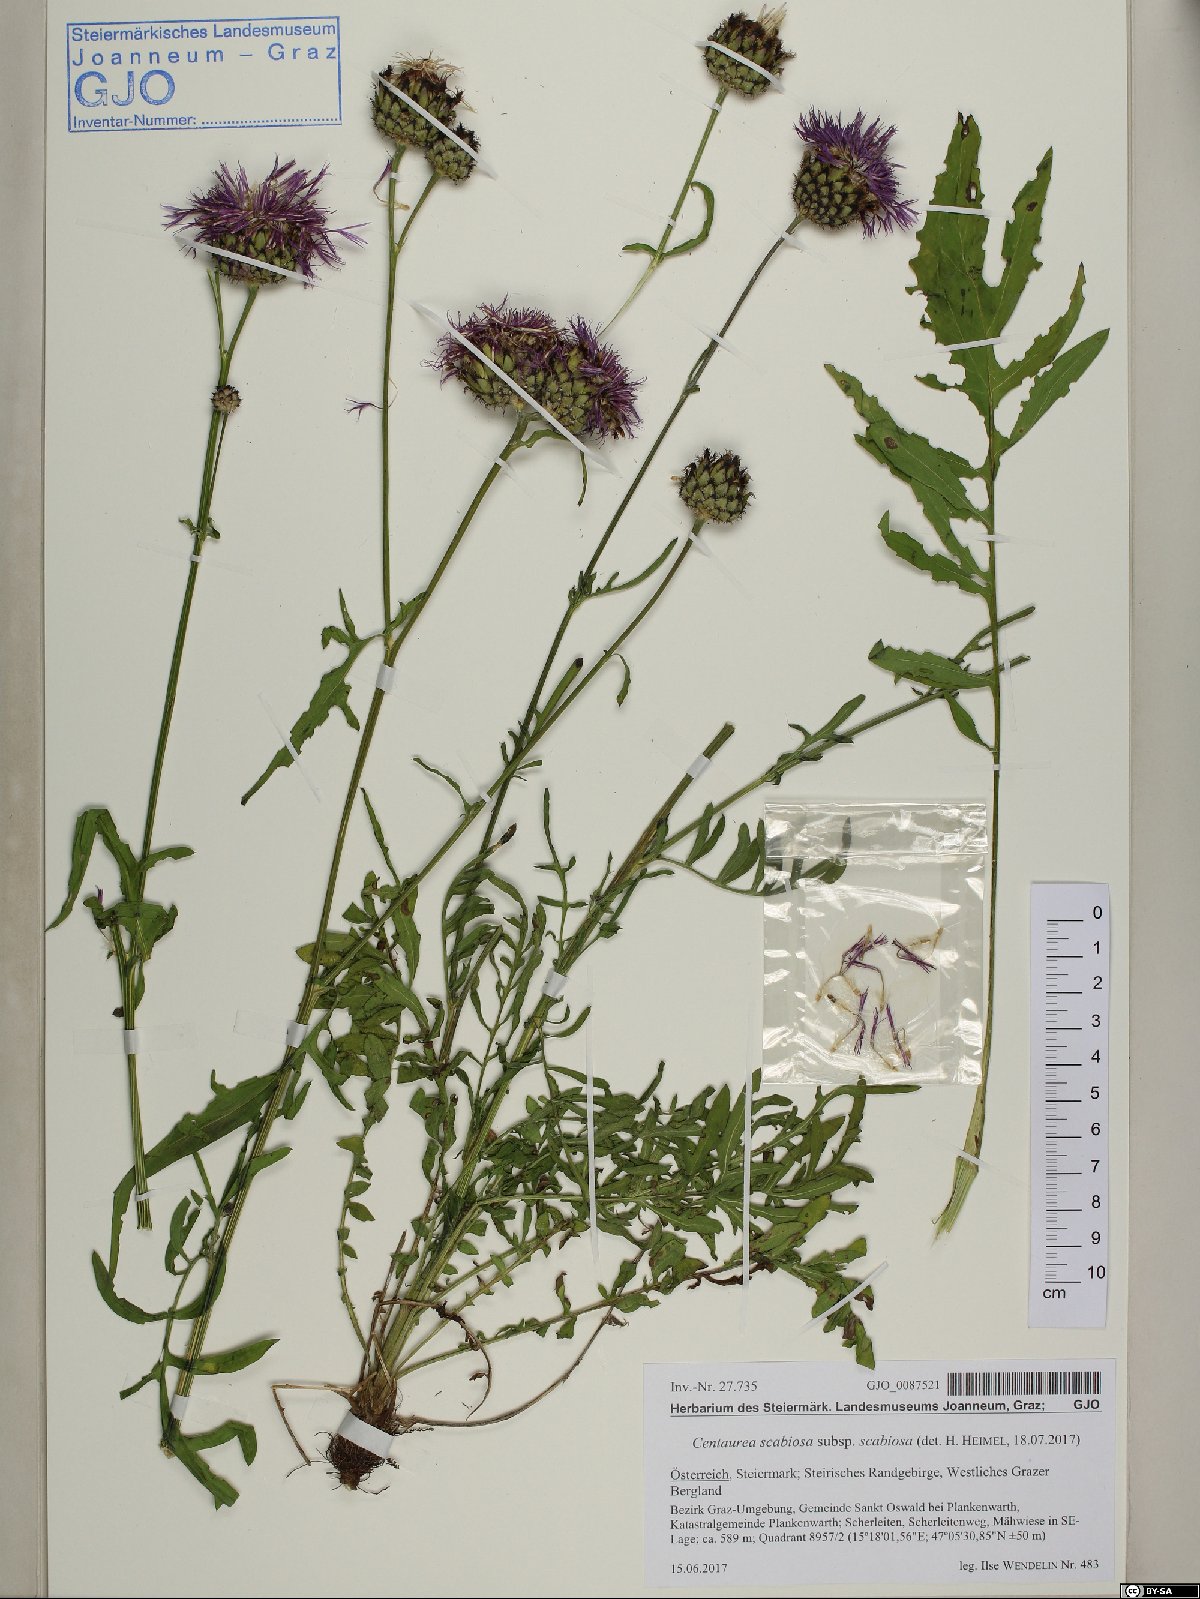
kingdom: Plantae
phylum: Tracheophyta
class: Magnoliopsida
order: Asterales
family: Asteraceae
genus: Centaurea
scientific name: Centaurea scabiosa
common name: Greater knapweed
